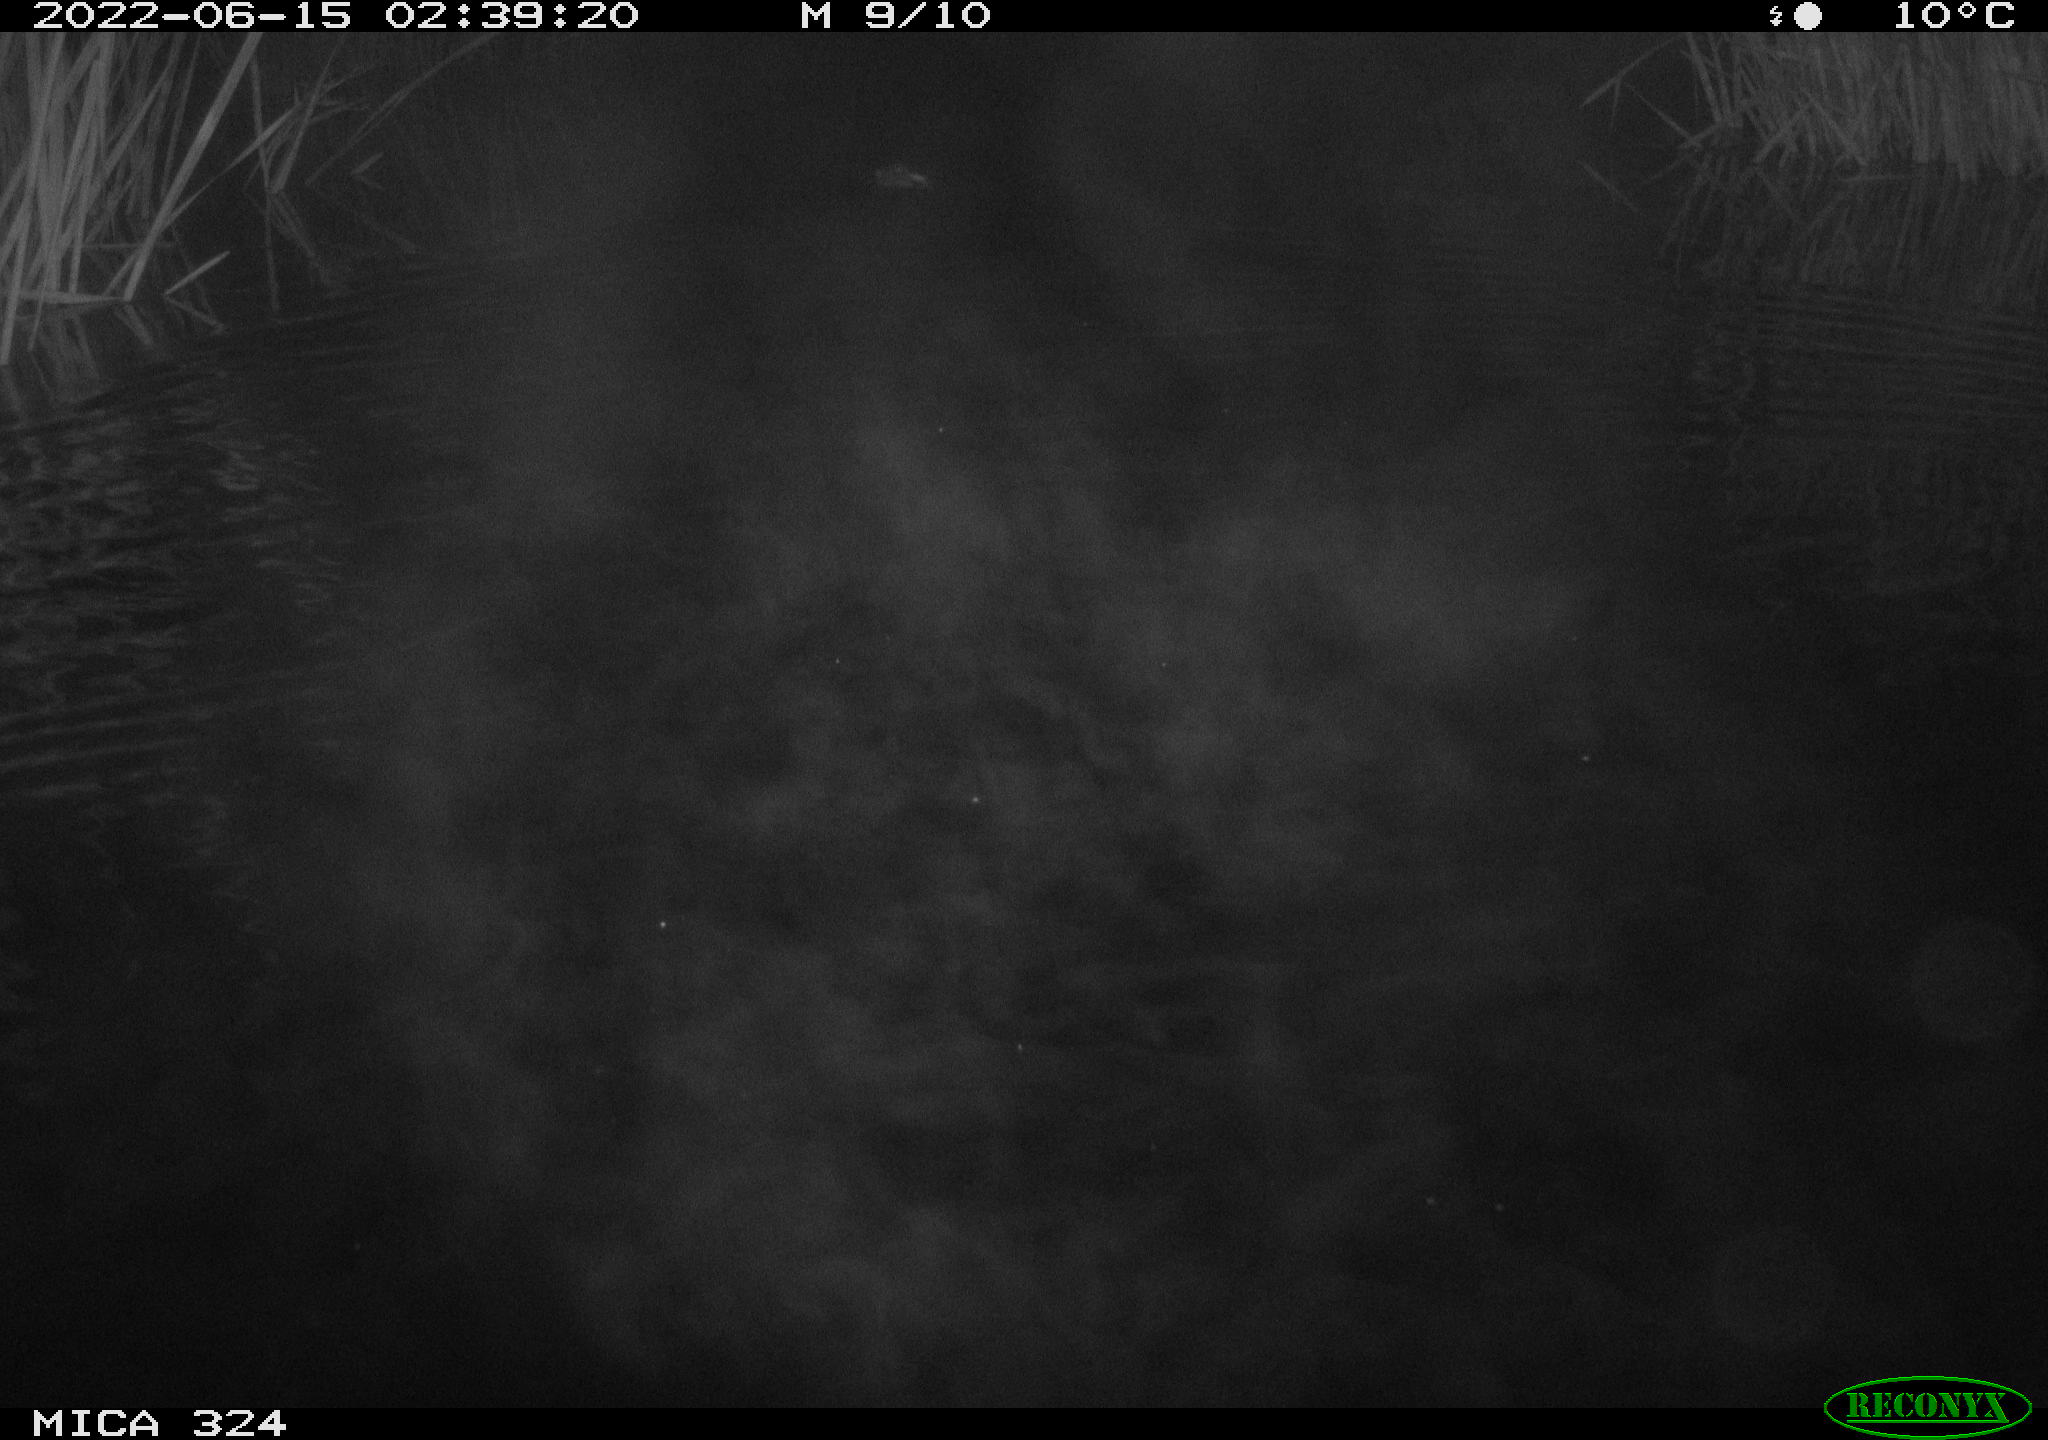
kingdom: Animalia
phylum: Chordata
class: Mammalia
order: Rodentia
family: Cricetidae
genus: Ondatra
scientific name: Ondatra zibethicus
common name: Muskrat
